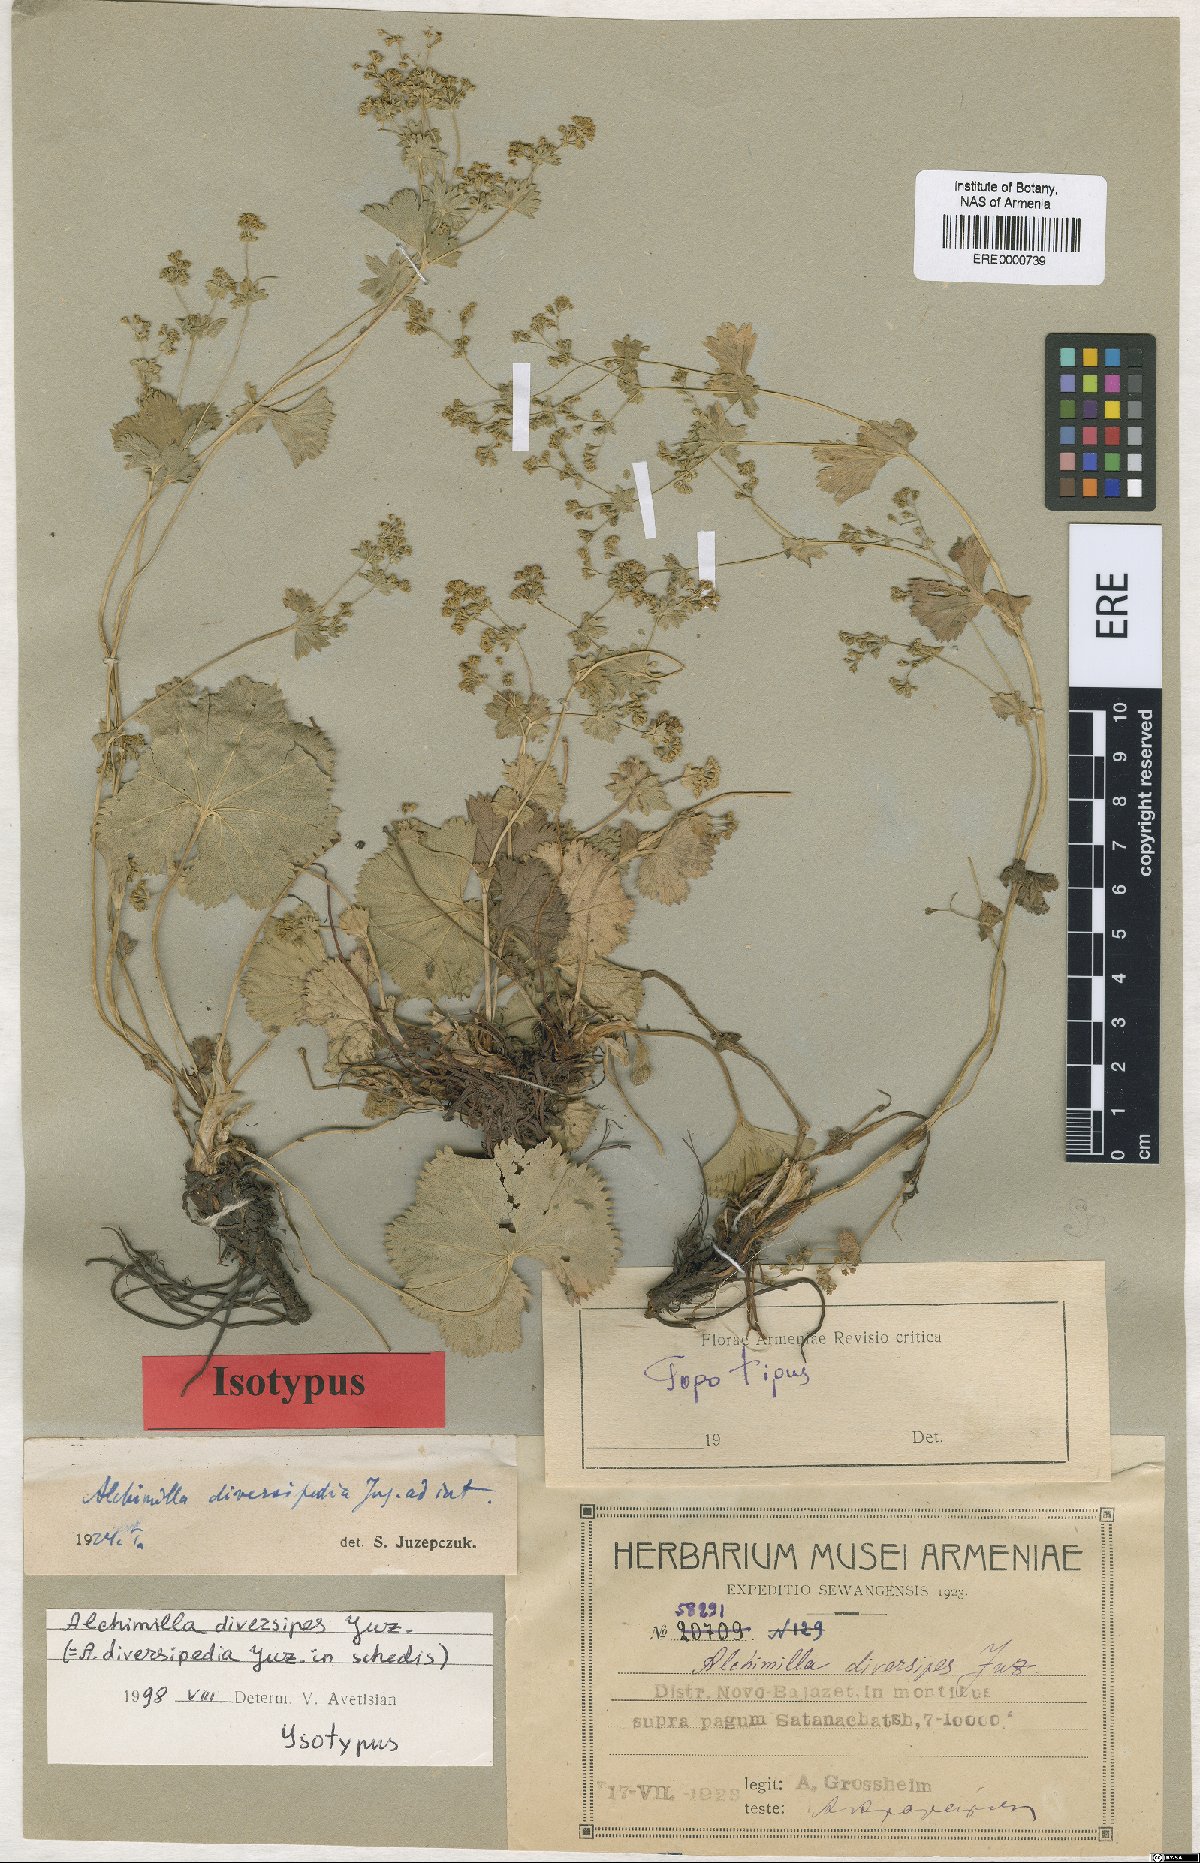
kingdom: Plantae
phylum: Tracheophyta
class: Magnoliopsida
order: Rosales
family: Rosaceae
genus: Alchemilla
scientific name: Alchemilla diversipes
